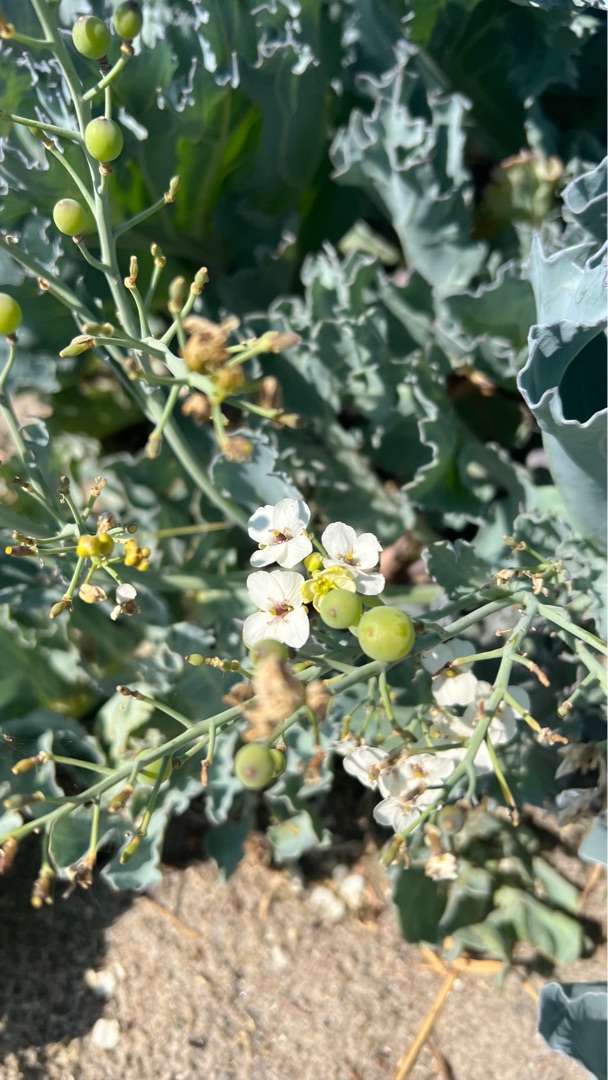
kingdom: Plantae
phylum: Tracheophyta
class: Magnoliopsida
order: Brassicales
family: Brassicaceae
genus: Crambe
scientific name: Crambe maritima
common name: Strandkål
